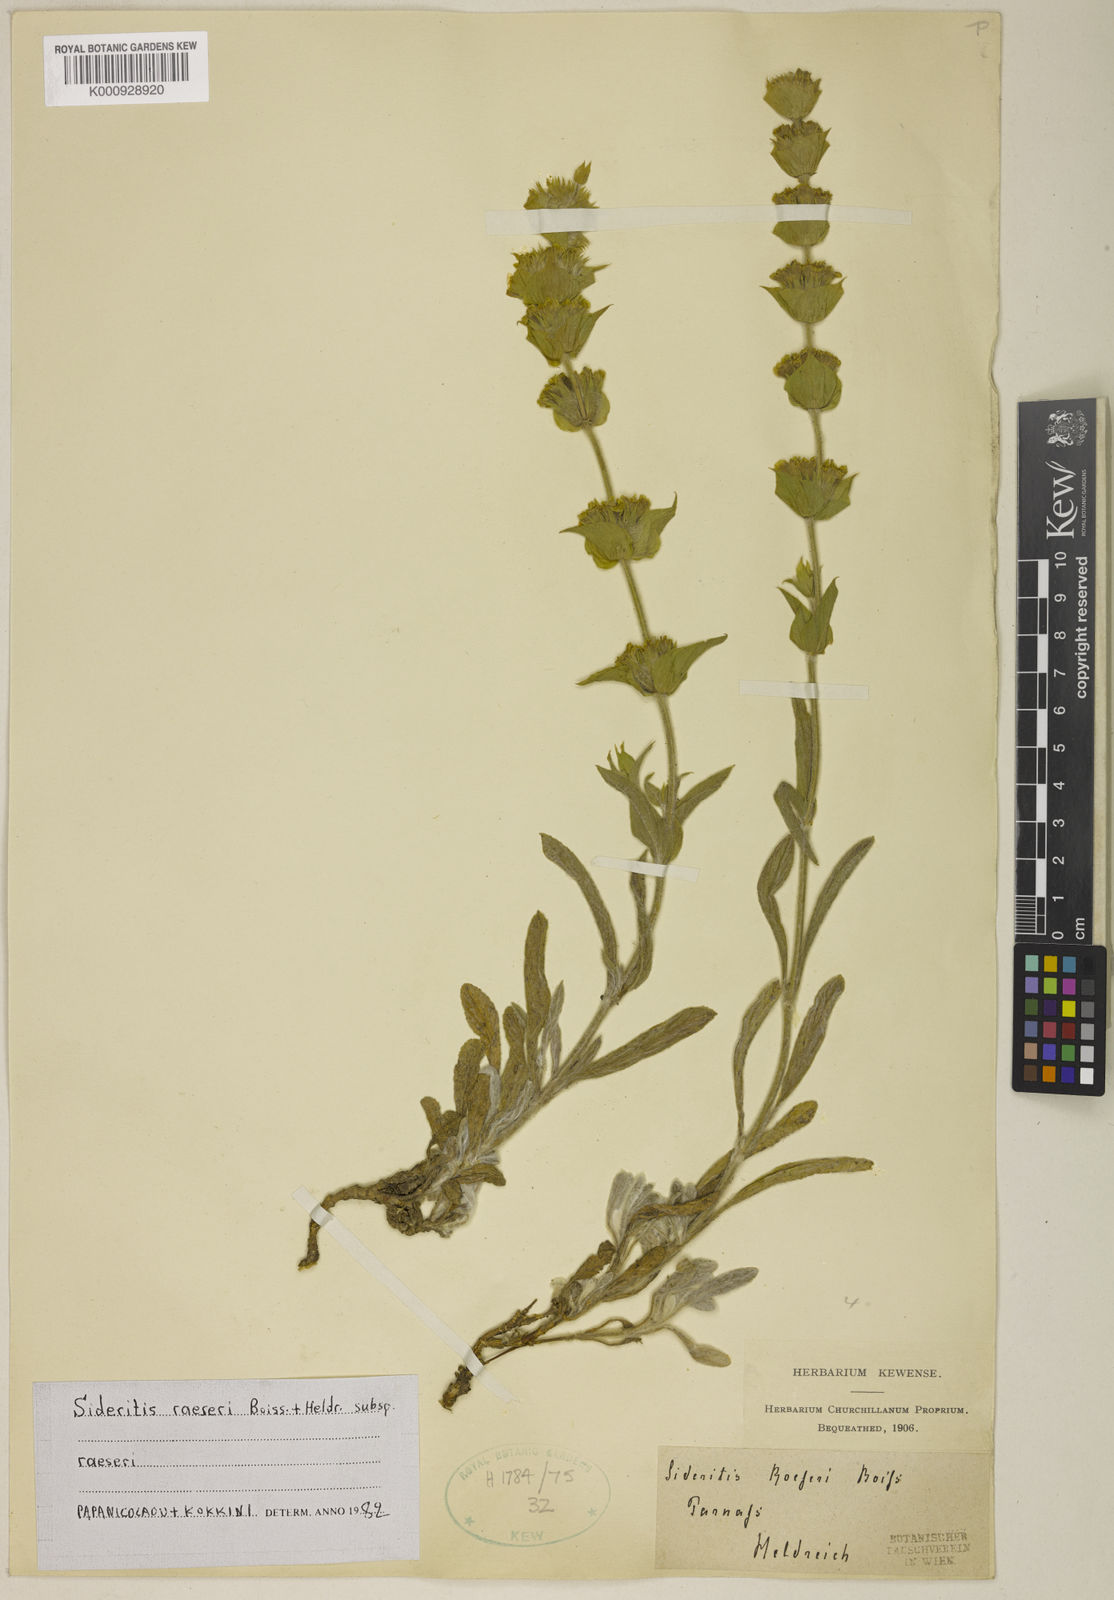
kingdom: Plantae
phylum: Tracheophyta
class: Magnoliopsida
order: Lamiales
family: Lamiaceae
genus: Sideritis
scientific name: Sideritis syriaca
